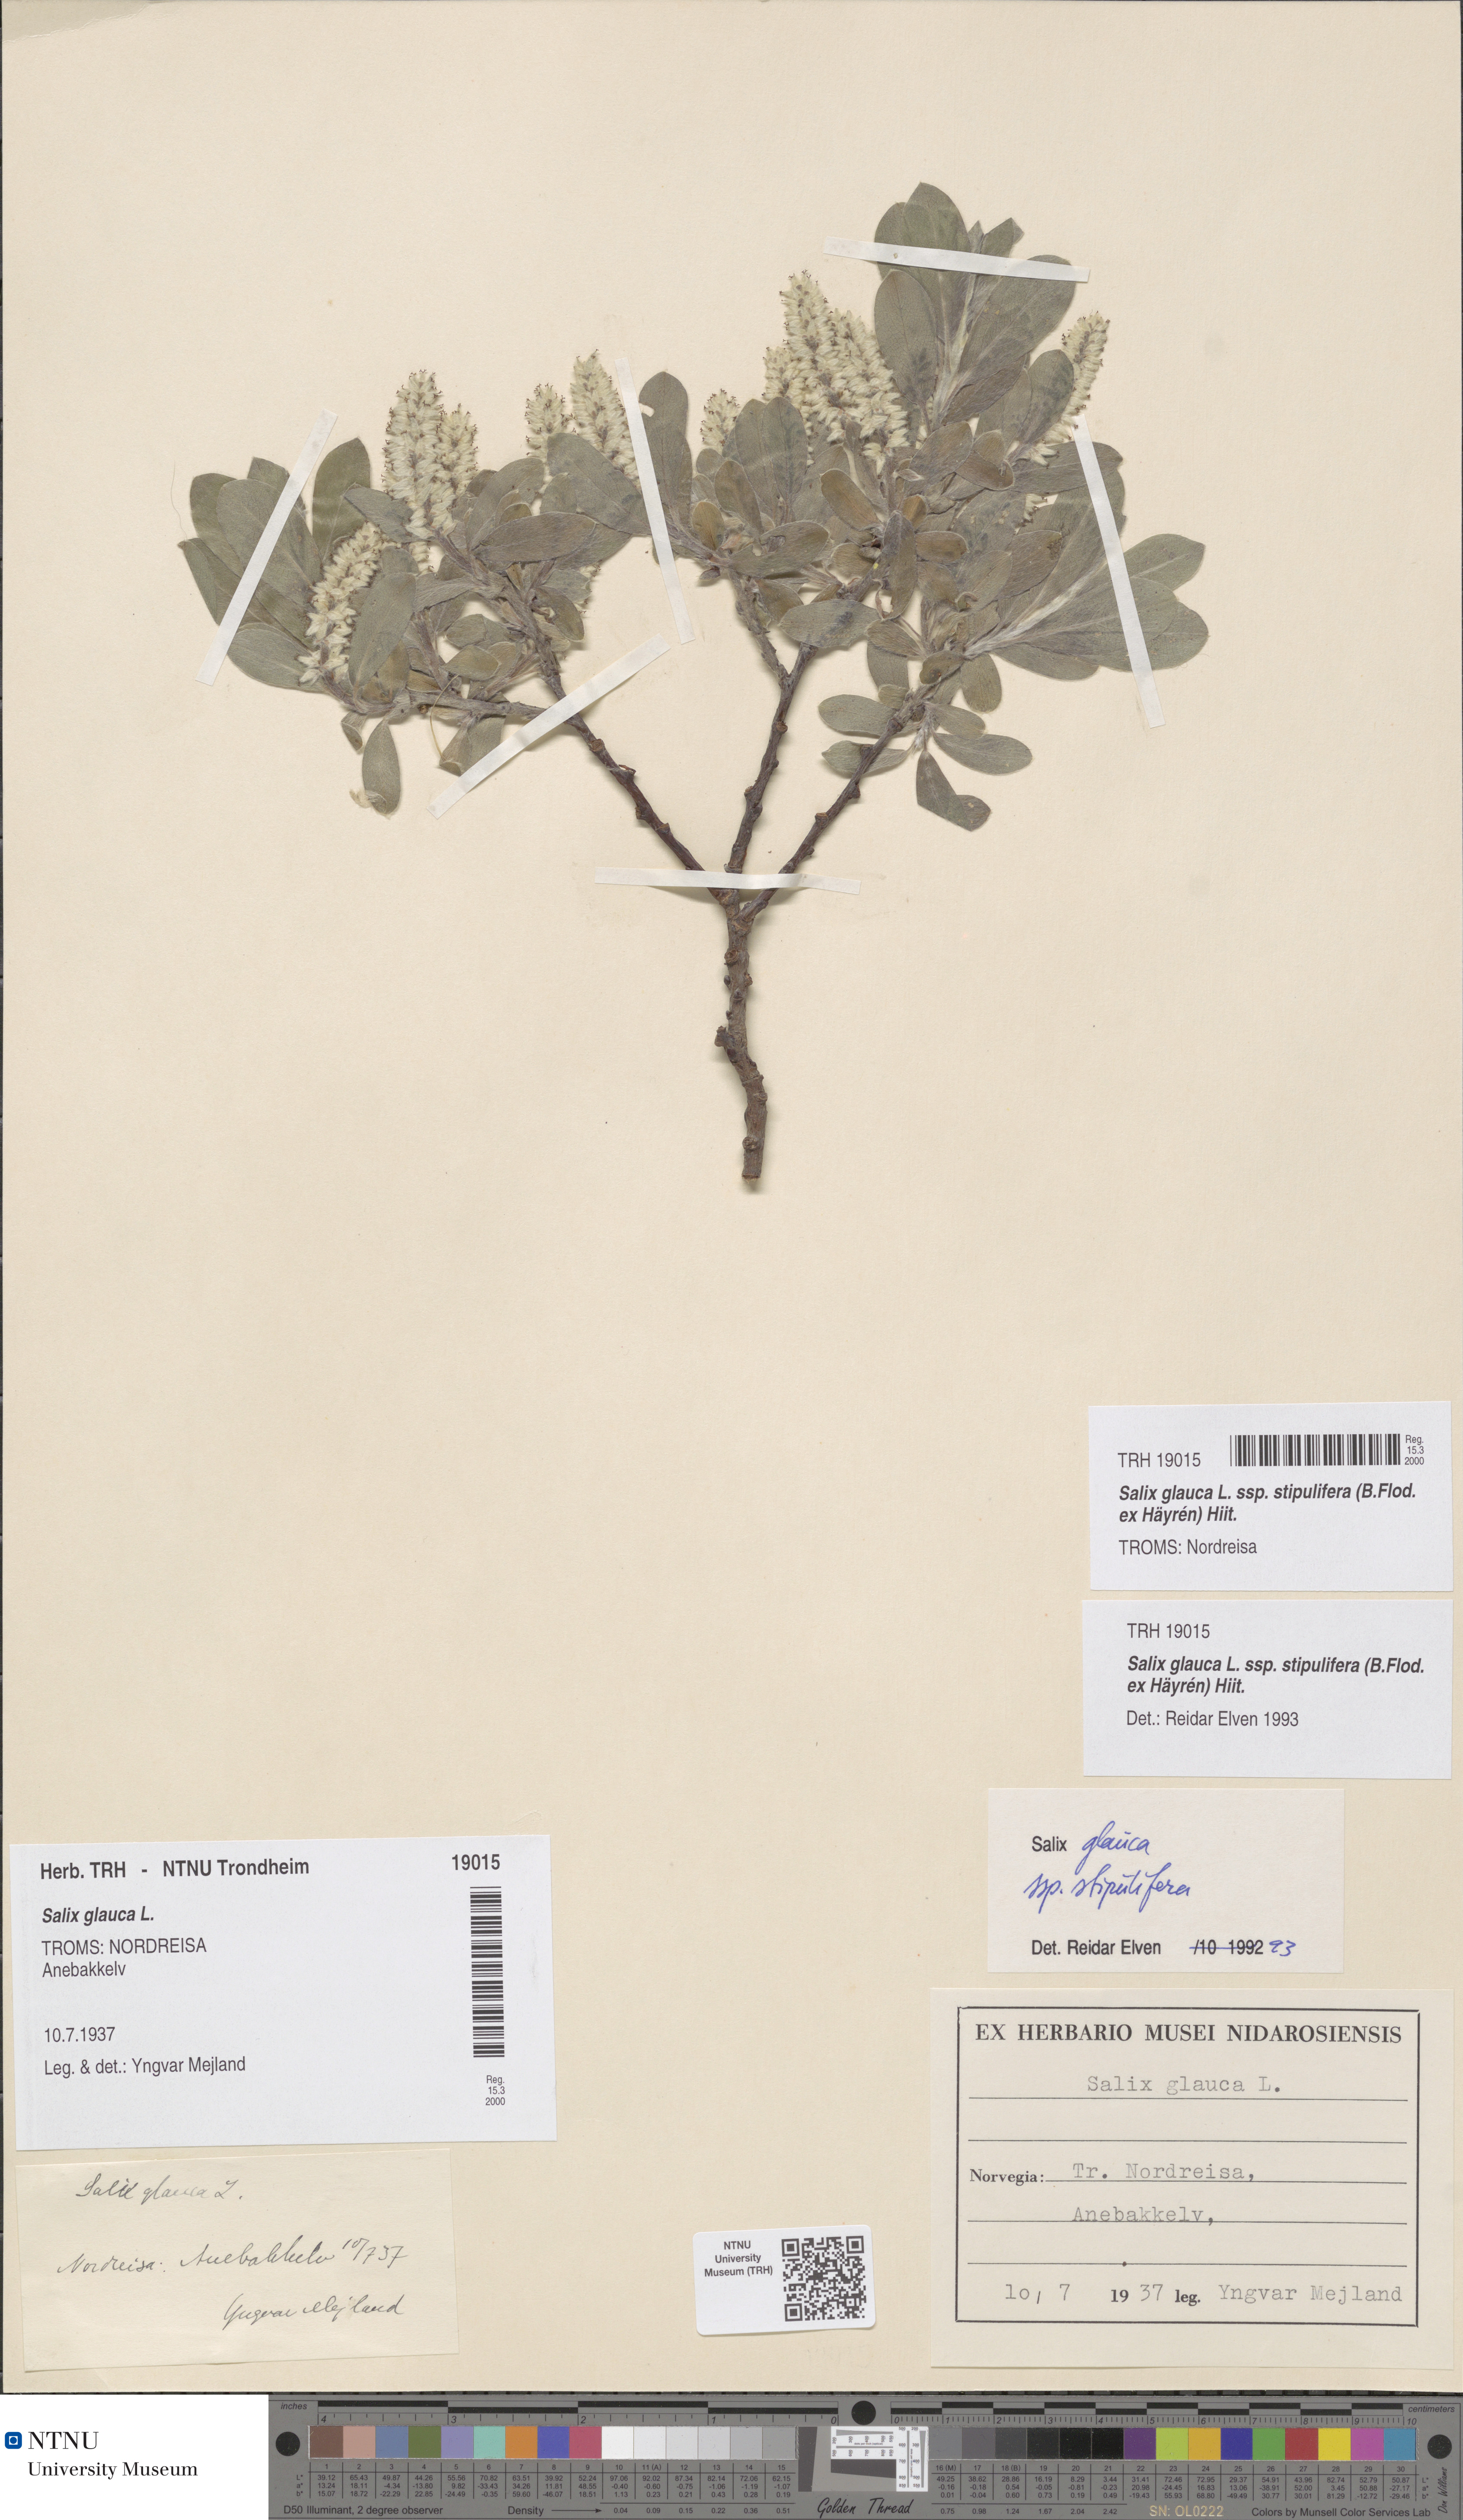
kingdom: Plantae
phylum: Tracheophyta
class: Magnoliopsida
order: Malpighiales
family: Salicaceae
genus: Salix
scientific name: Salix glauca
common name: Glaucous willow
